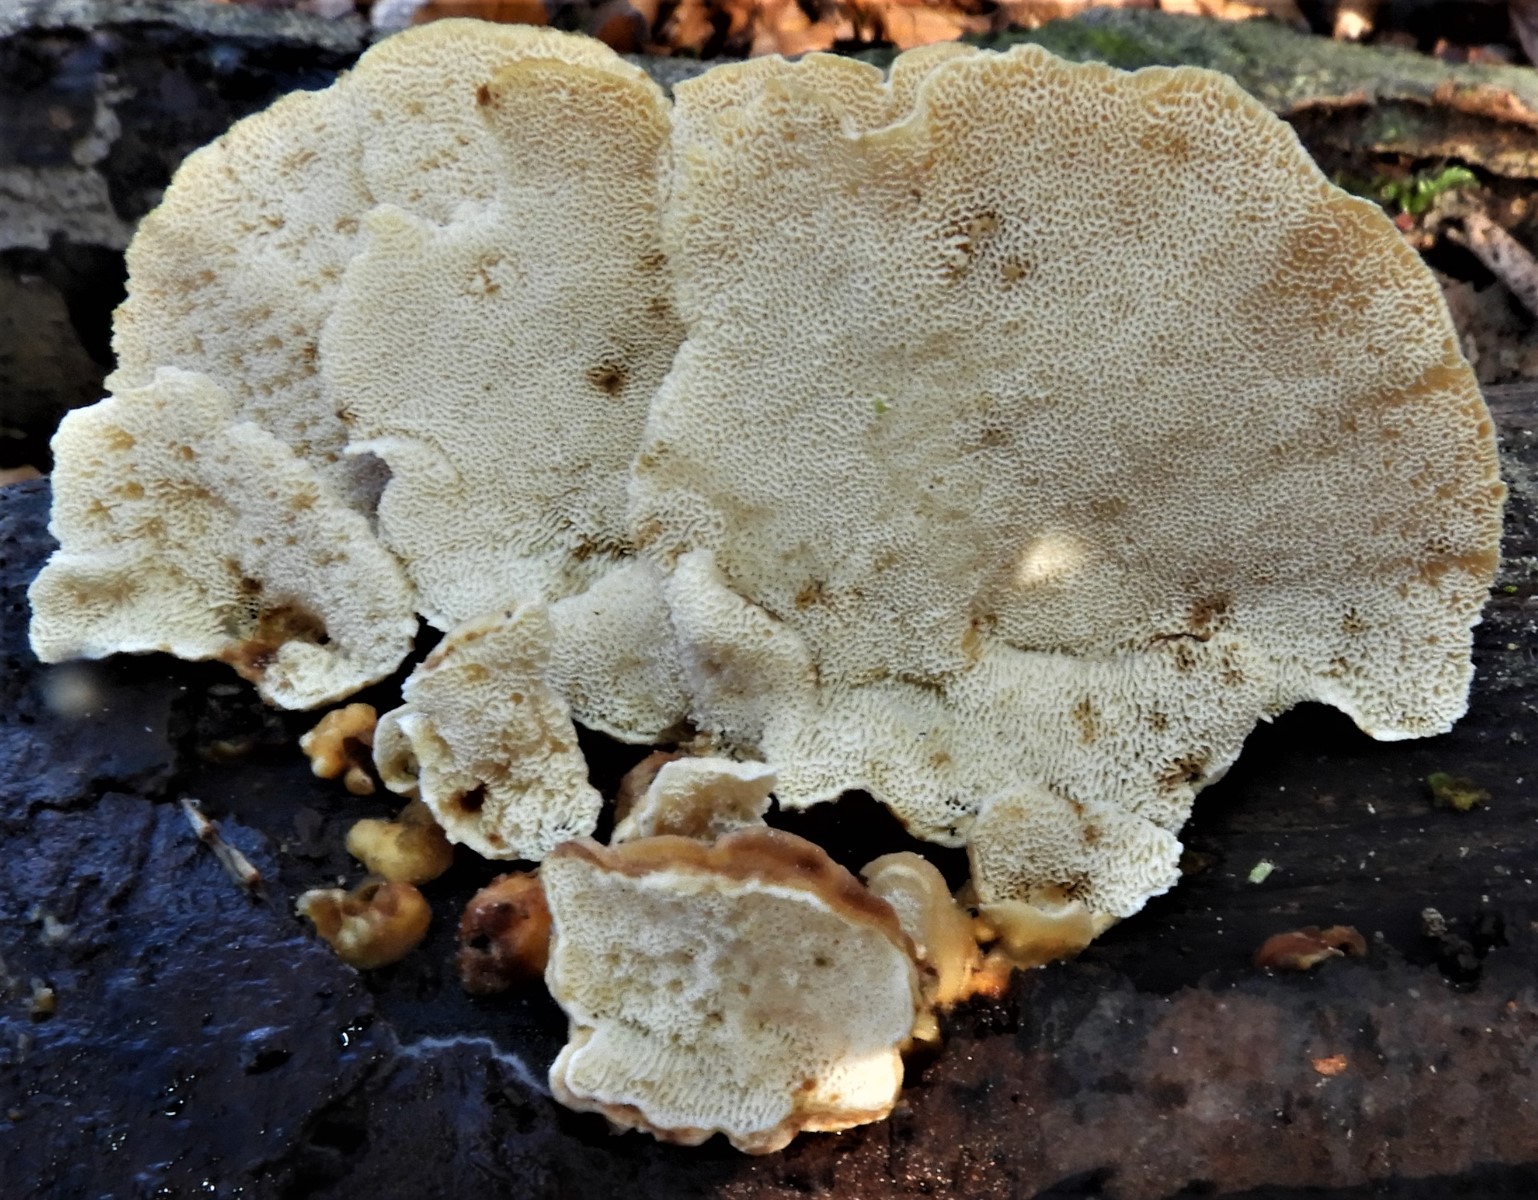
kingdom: Fungi
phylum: Basidiomycota
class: Agaricomycetes
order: Polyporales
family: Polyporaceae
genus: Trametes
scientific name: Trametes ochracea
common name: bæltet læderporesvamp
